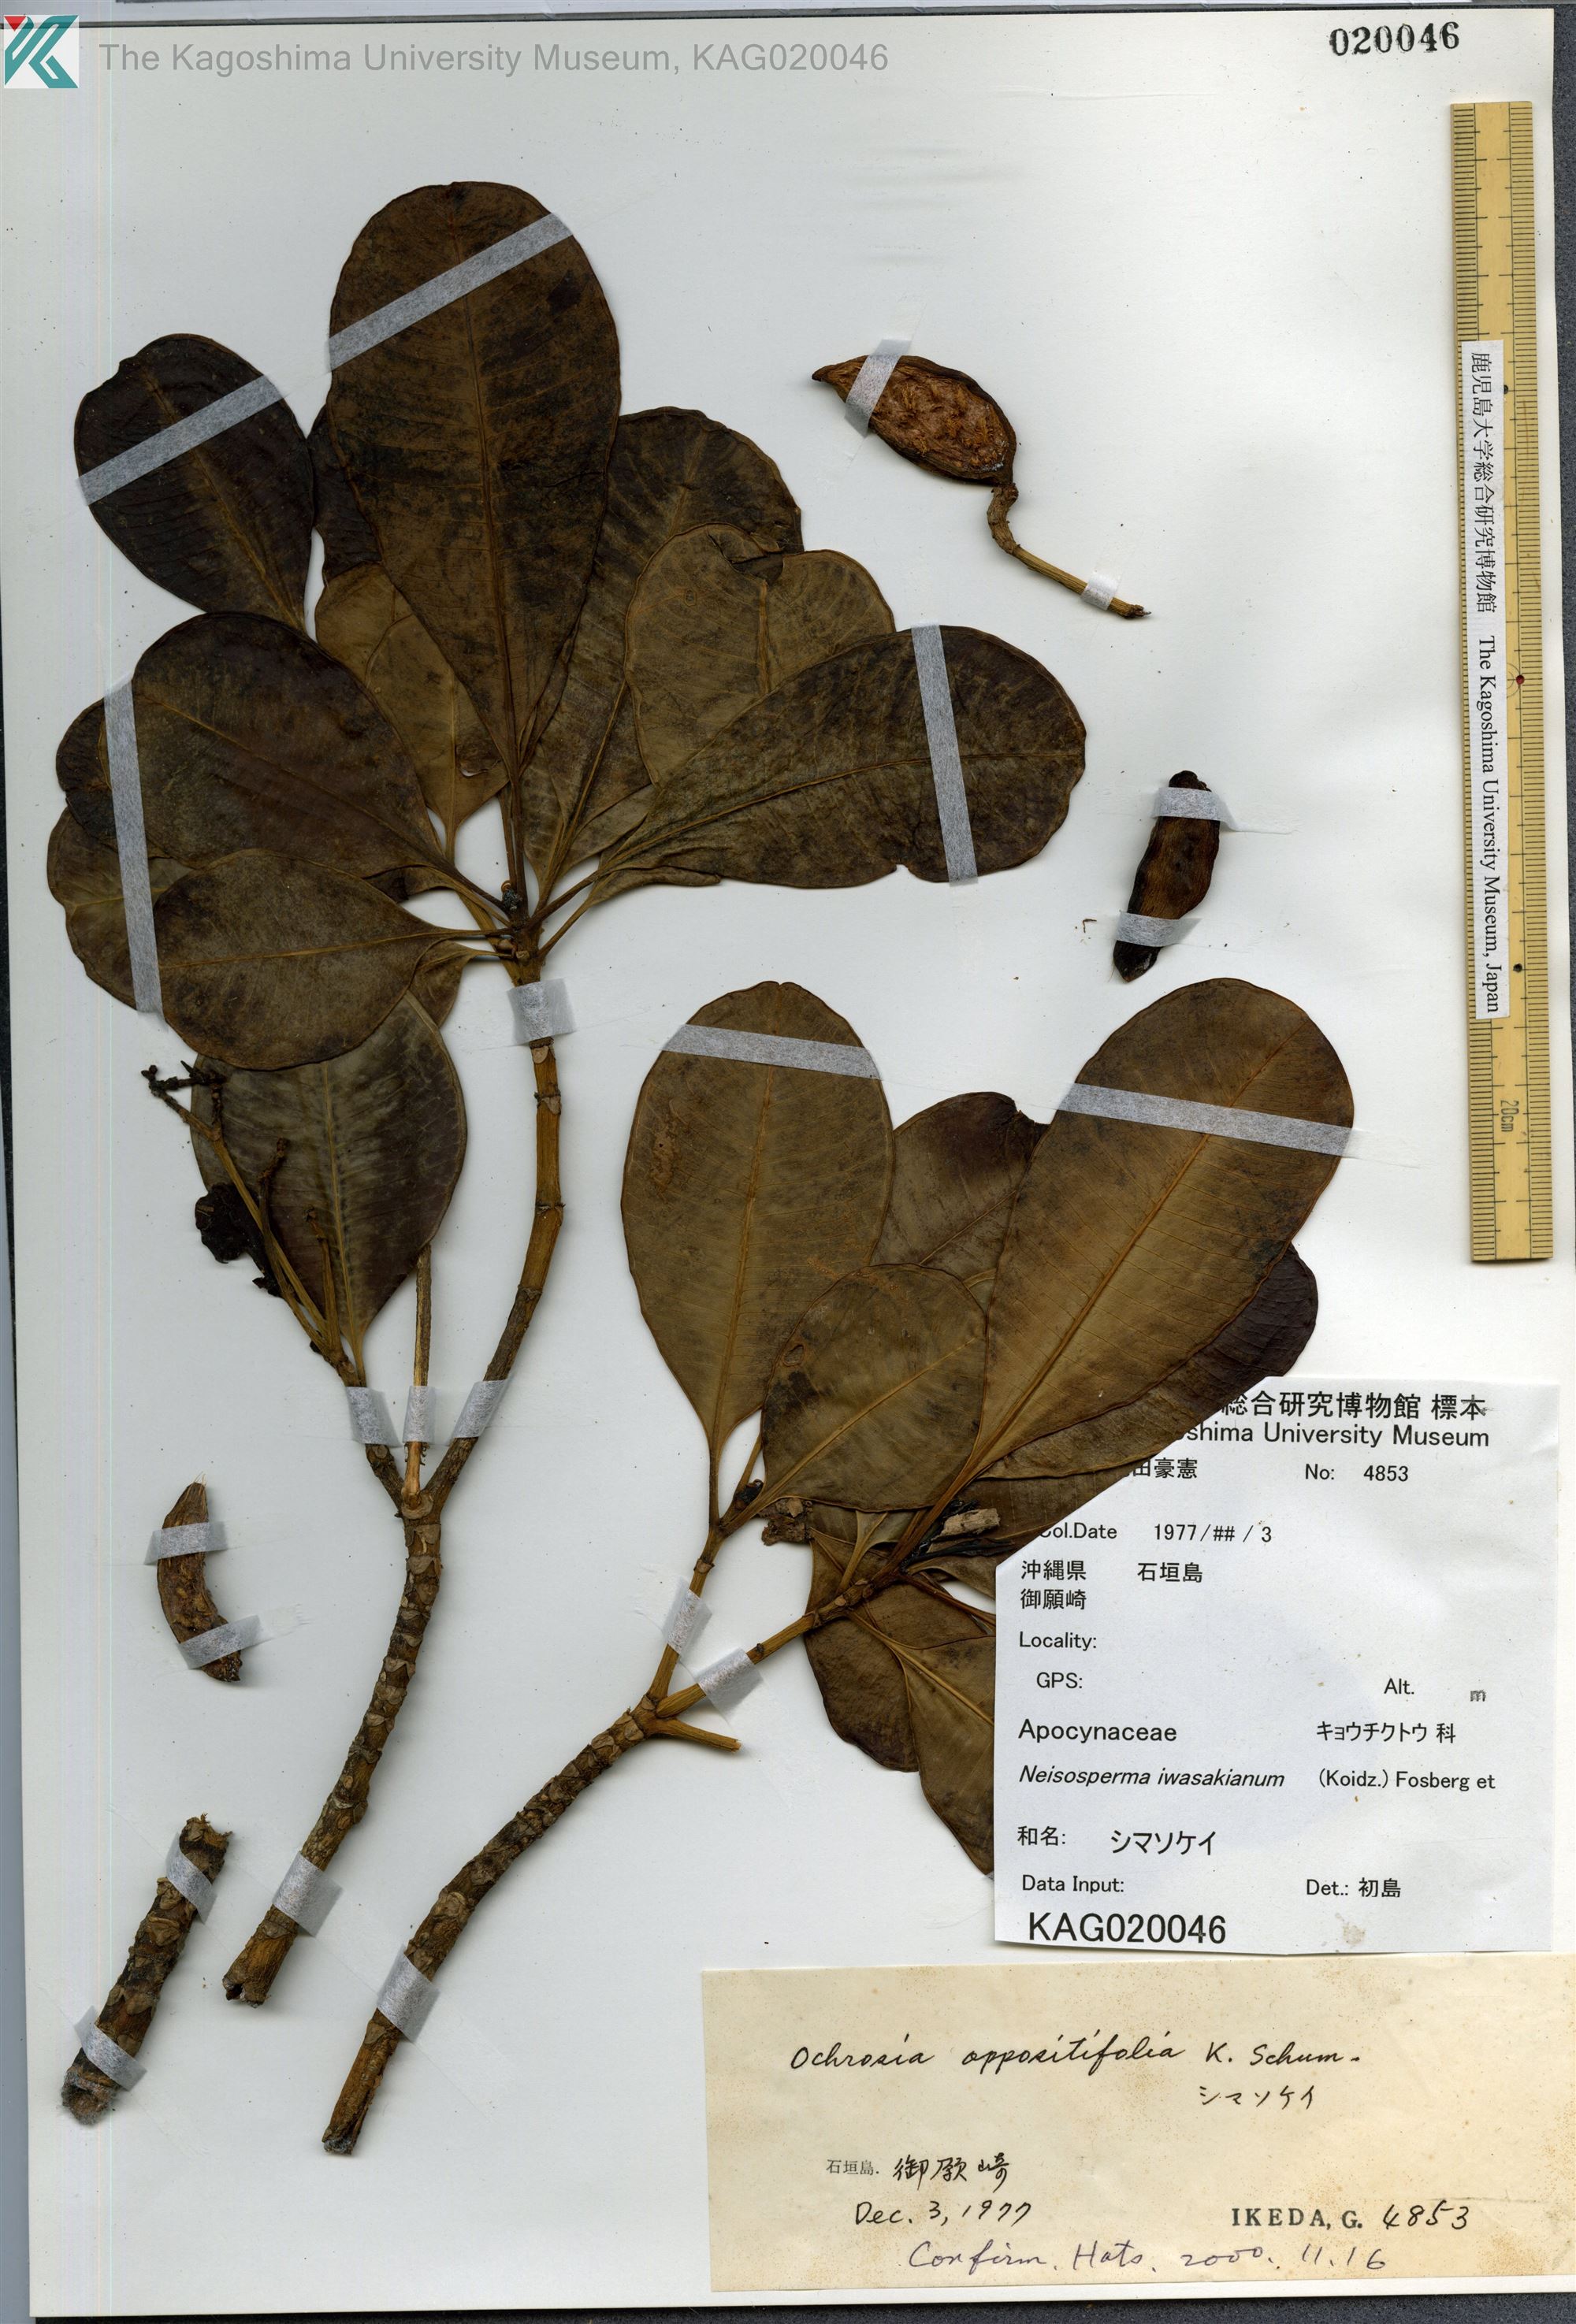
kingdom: Plantae
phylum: Tracheophyta
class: Magnoliopsida
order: Gentianales
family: Apocynaceae
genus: Ochrosia
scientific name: Ochrosia iwasakiana
